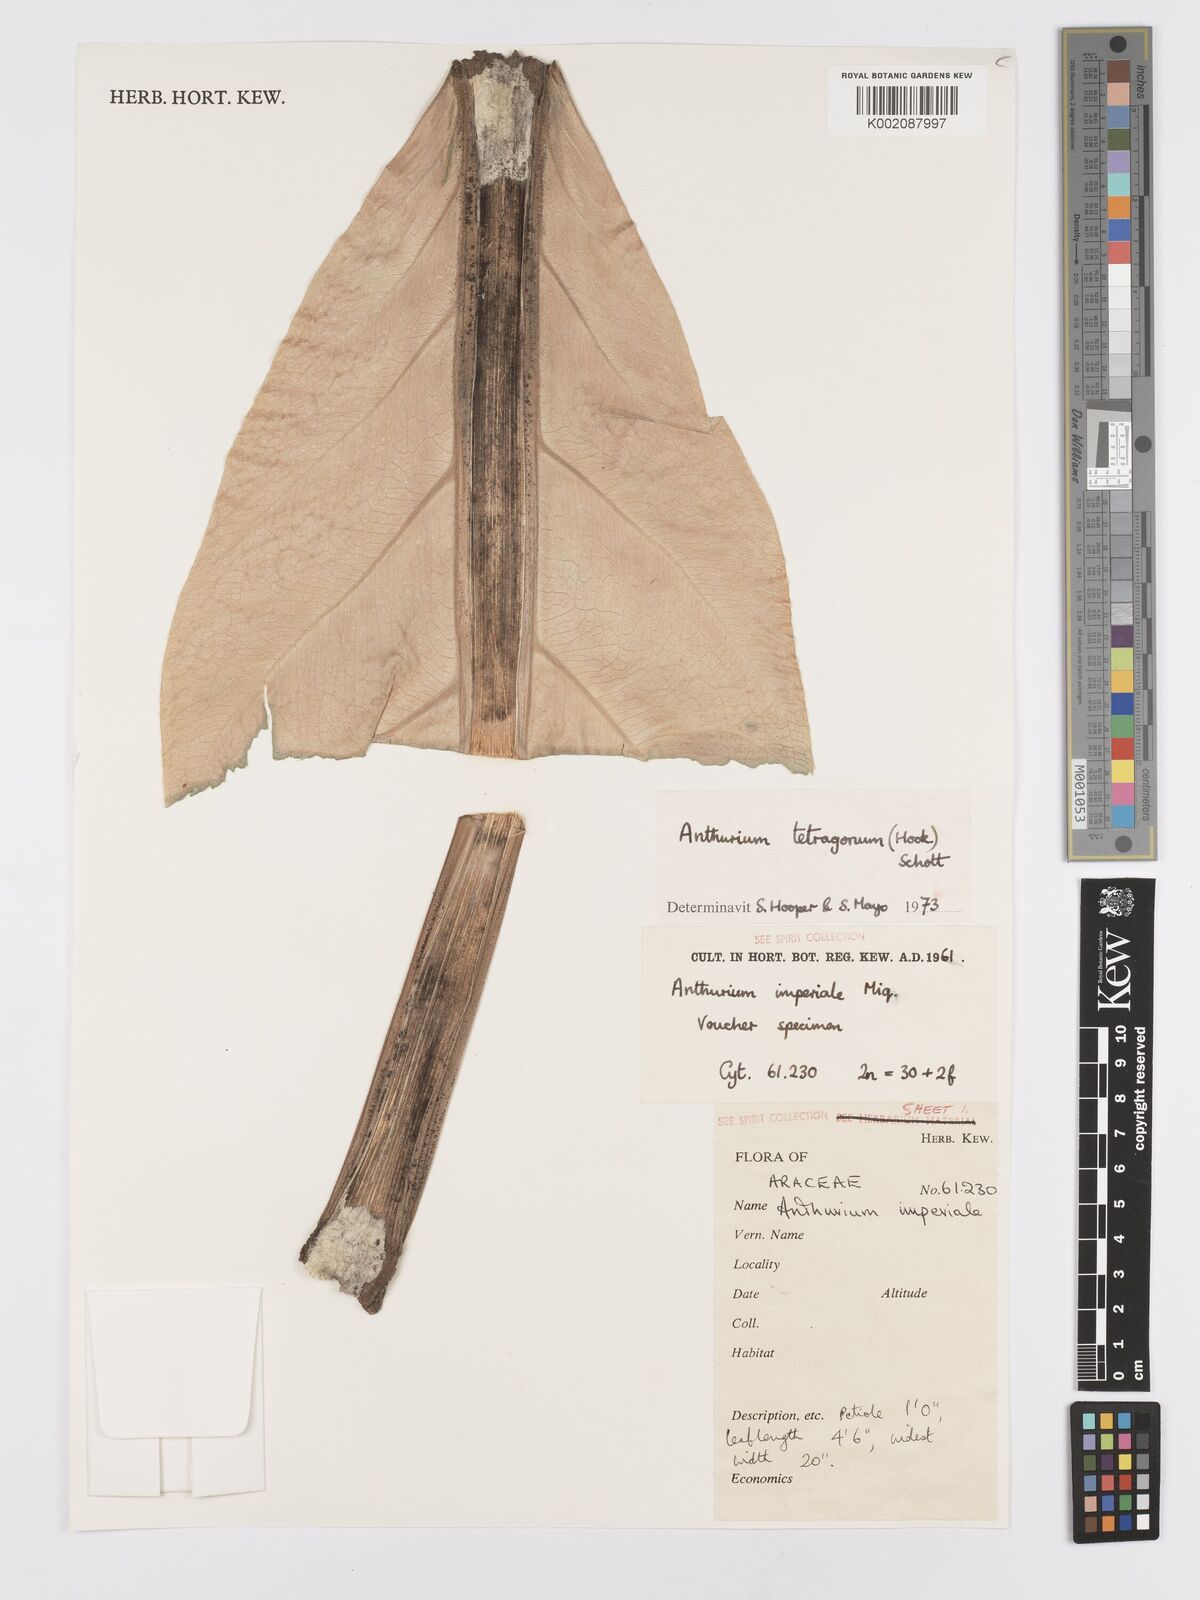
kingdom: Plantae
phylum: Tracheophyta
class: Liliopsida
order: Alismatales
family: Araceae
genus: Anthurium
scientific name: Anthurium schlechtendalii
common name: Laceleaf
